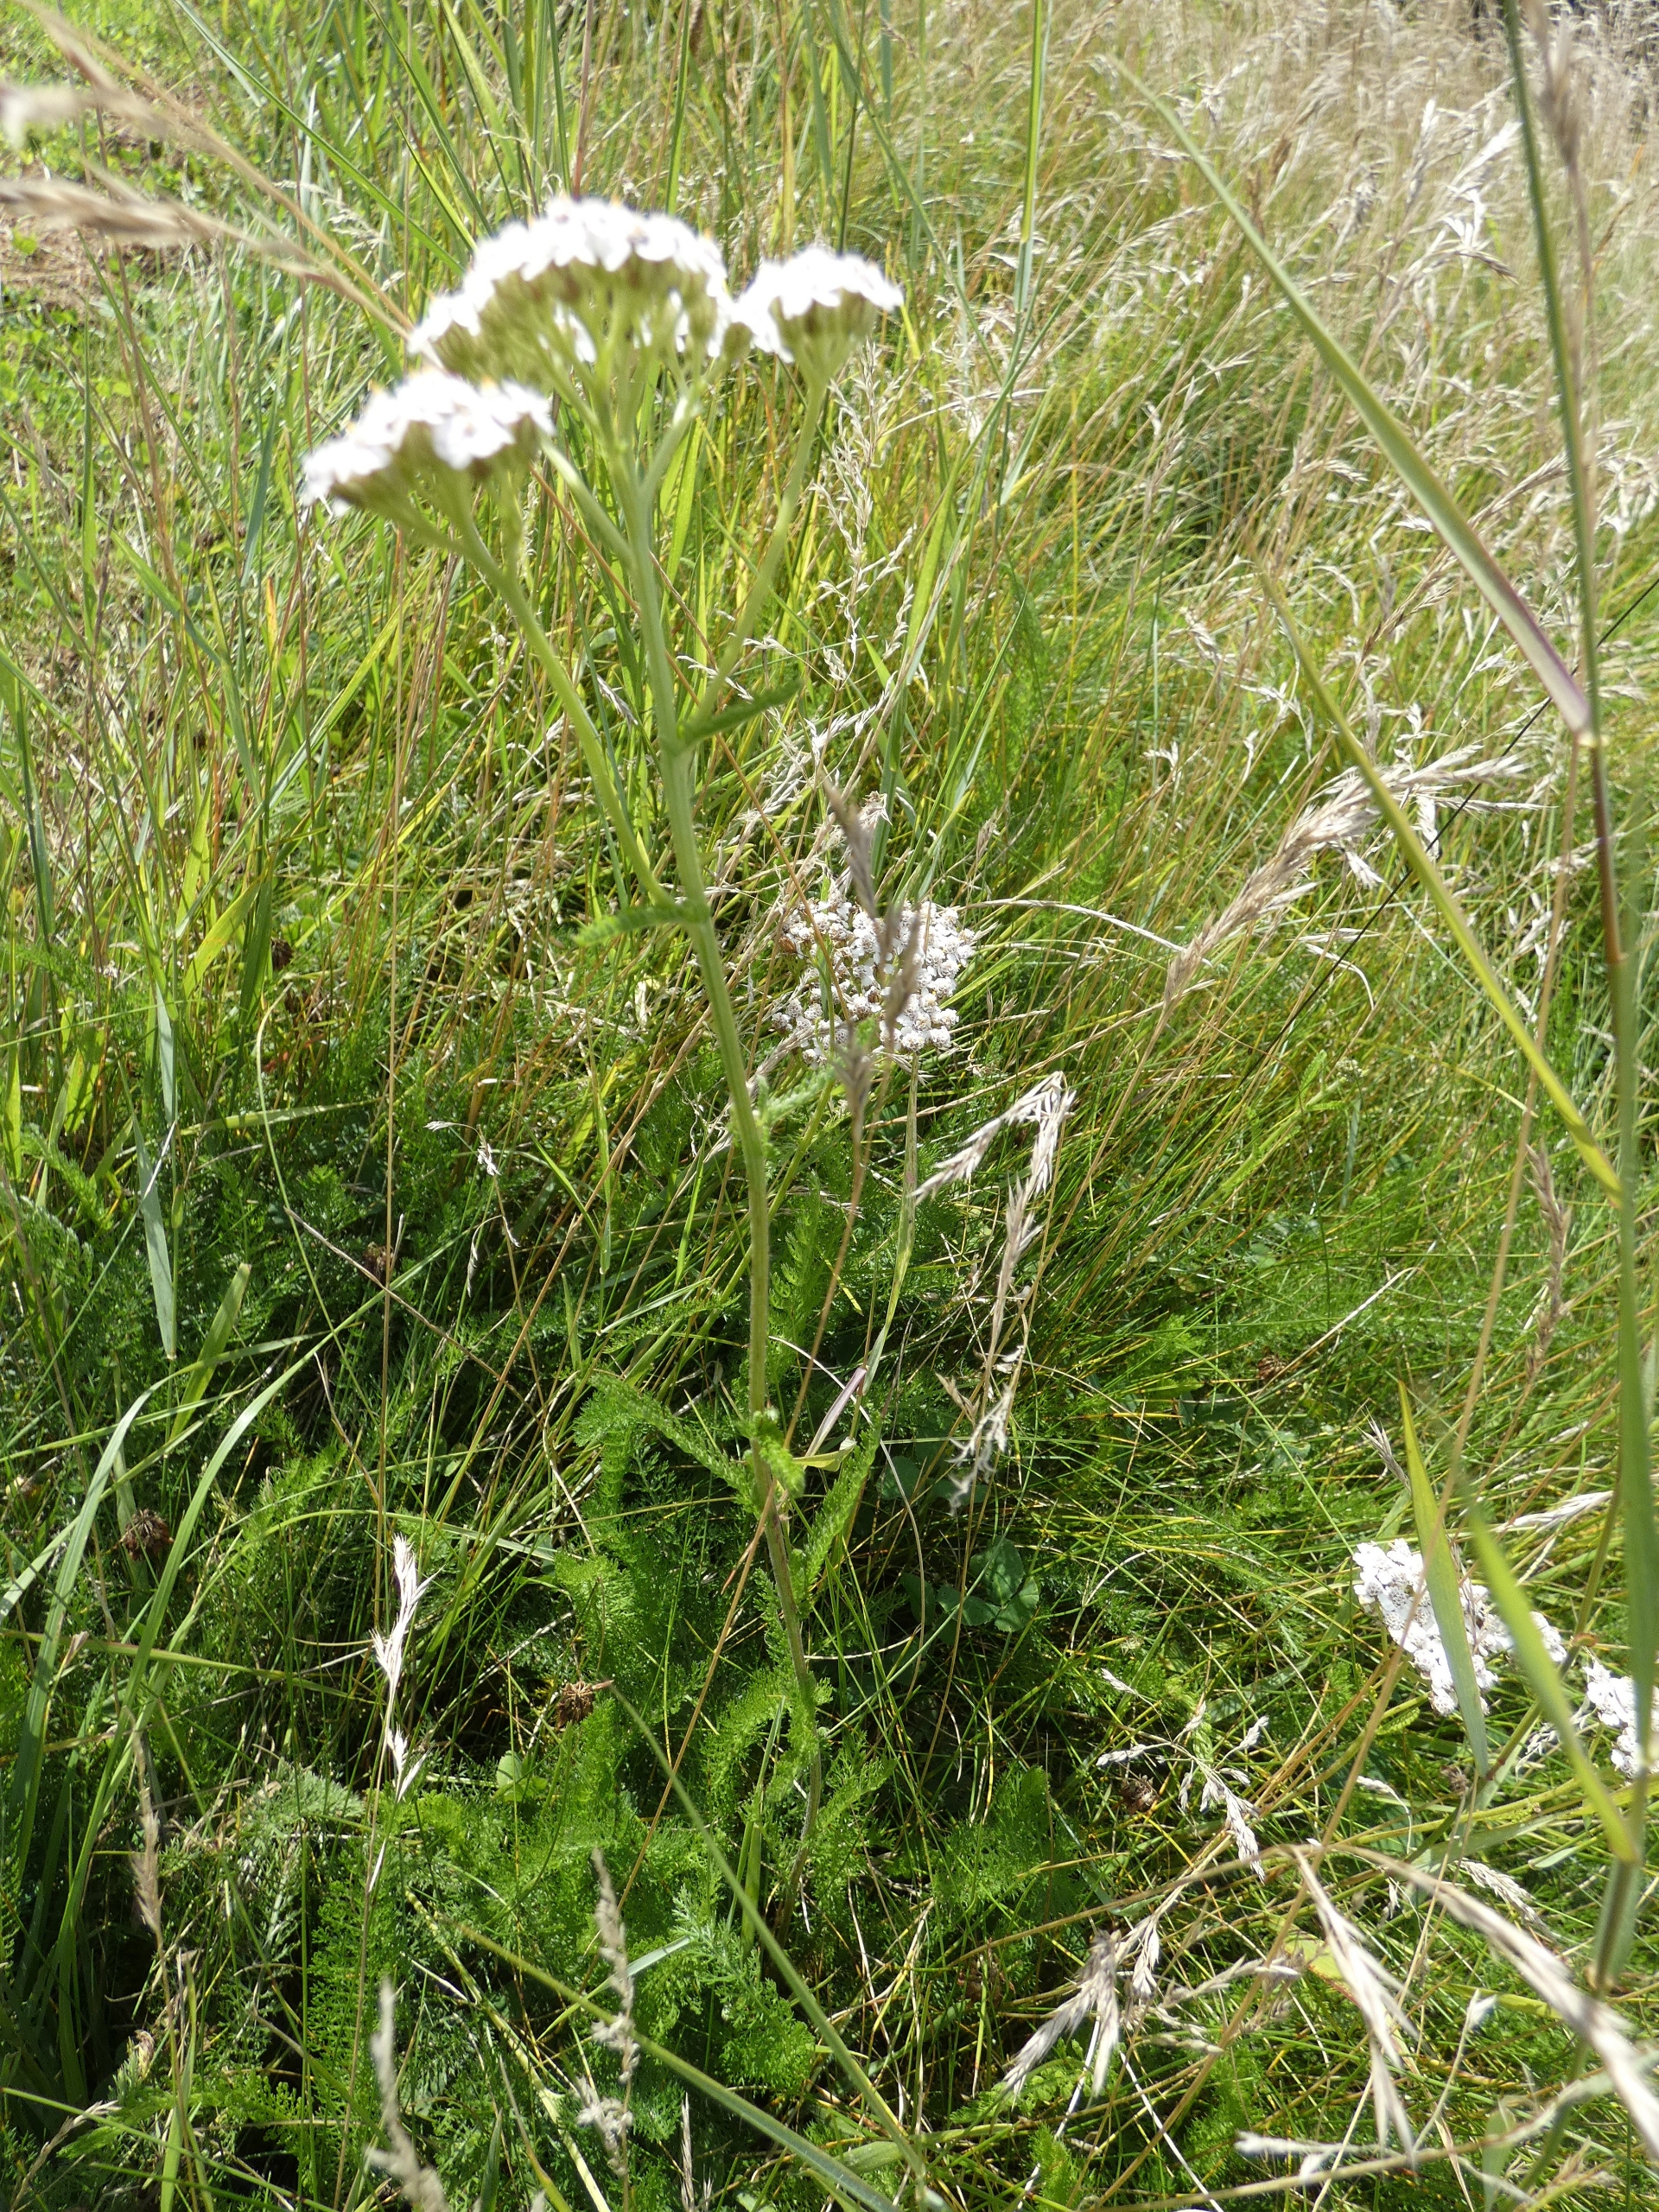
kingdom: Plantae
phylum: Tracheophyta
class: Magnoliopsida
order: Asterales
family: Asteraceae
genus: Achillea
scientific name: Achillea millefolium
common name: Almindelig røllike
